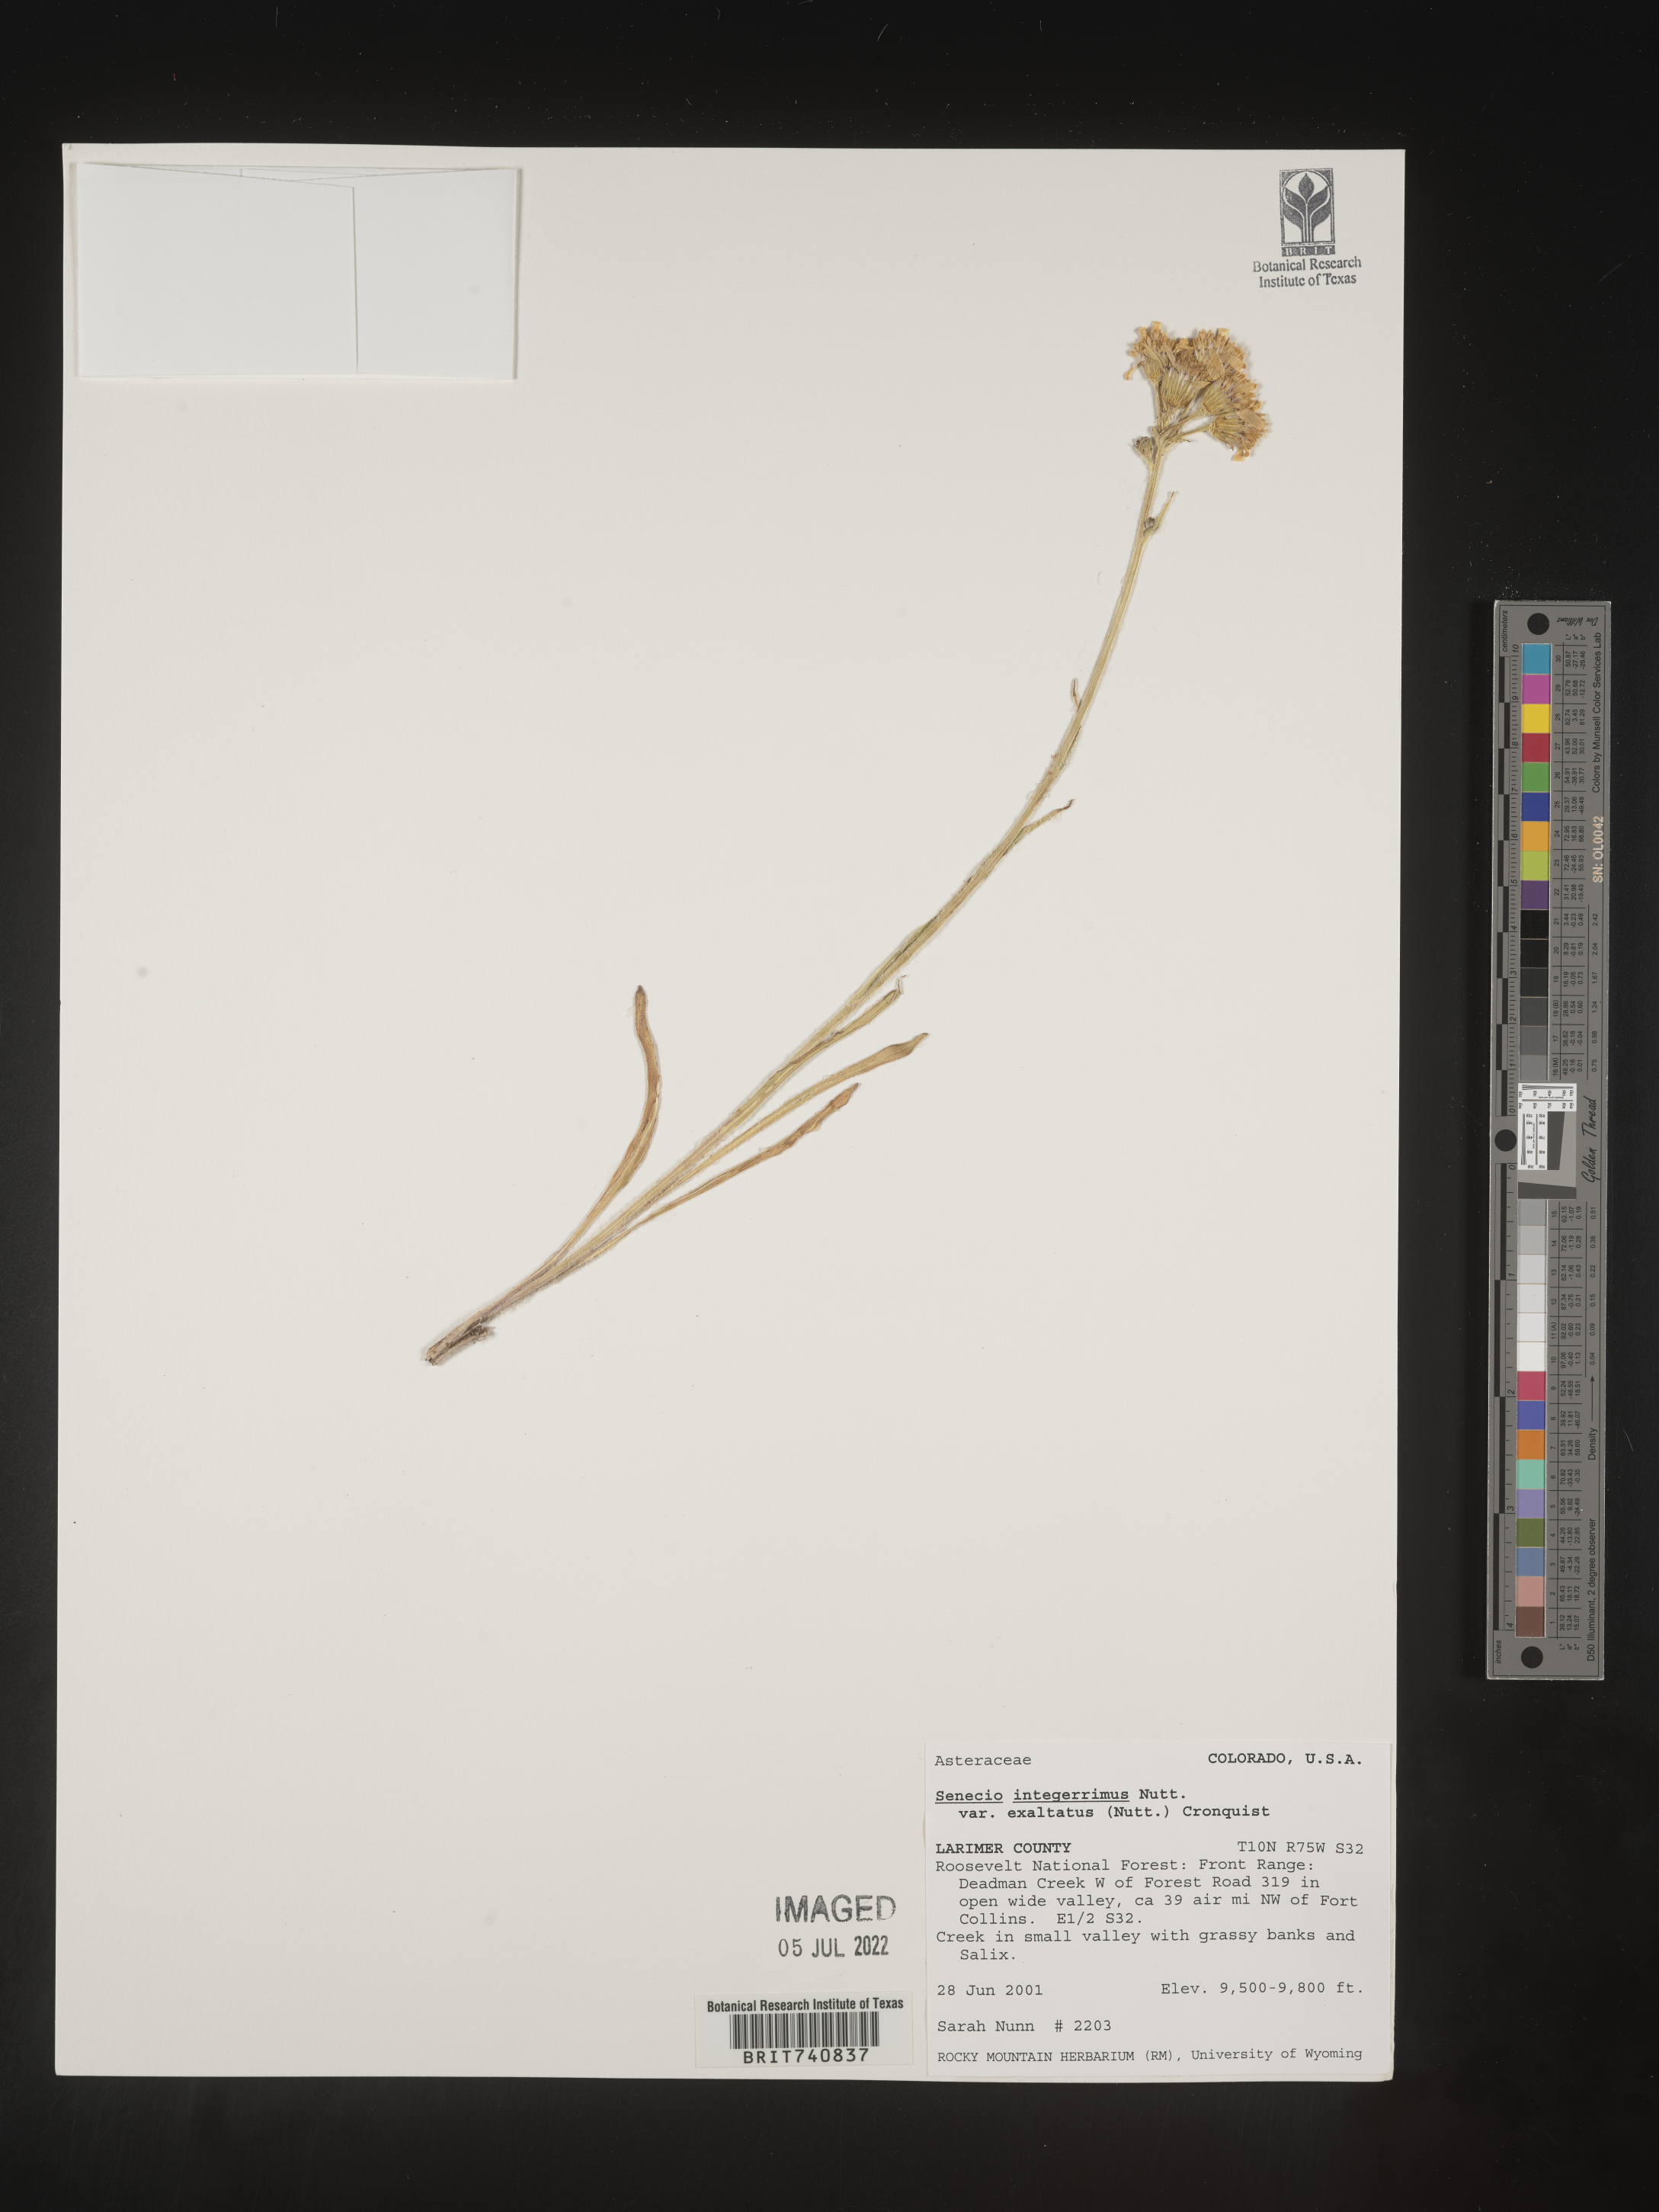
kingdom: Plantae
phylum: Tracheophyta
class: Magnoliopsida
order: Asterales
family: Asteraceae
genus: Senecio
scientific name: Senecio integerrimus
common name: Gaugeplant
